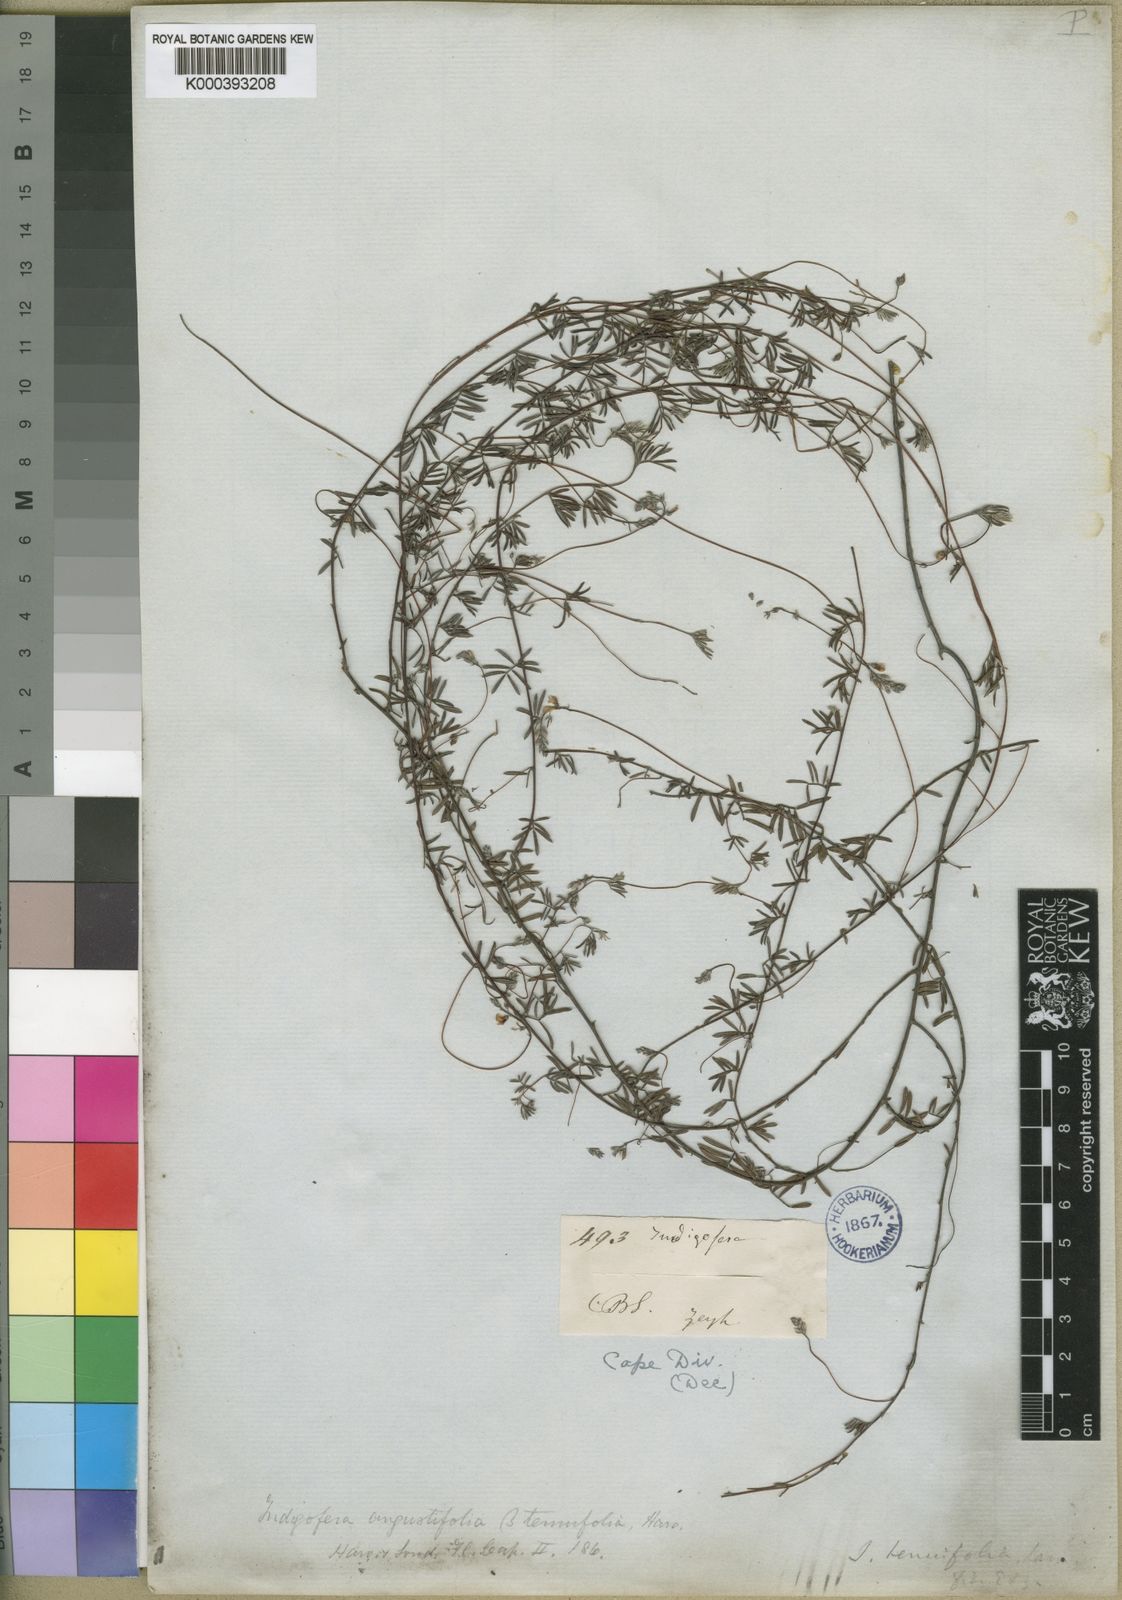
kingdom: Plantae
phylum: Tracheophyta
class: Magnoliopsida
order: Fabales
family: Fabaceae
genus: Indigofera
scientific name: Indigofera brachystachya
